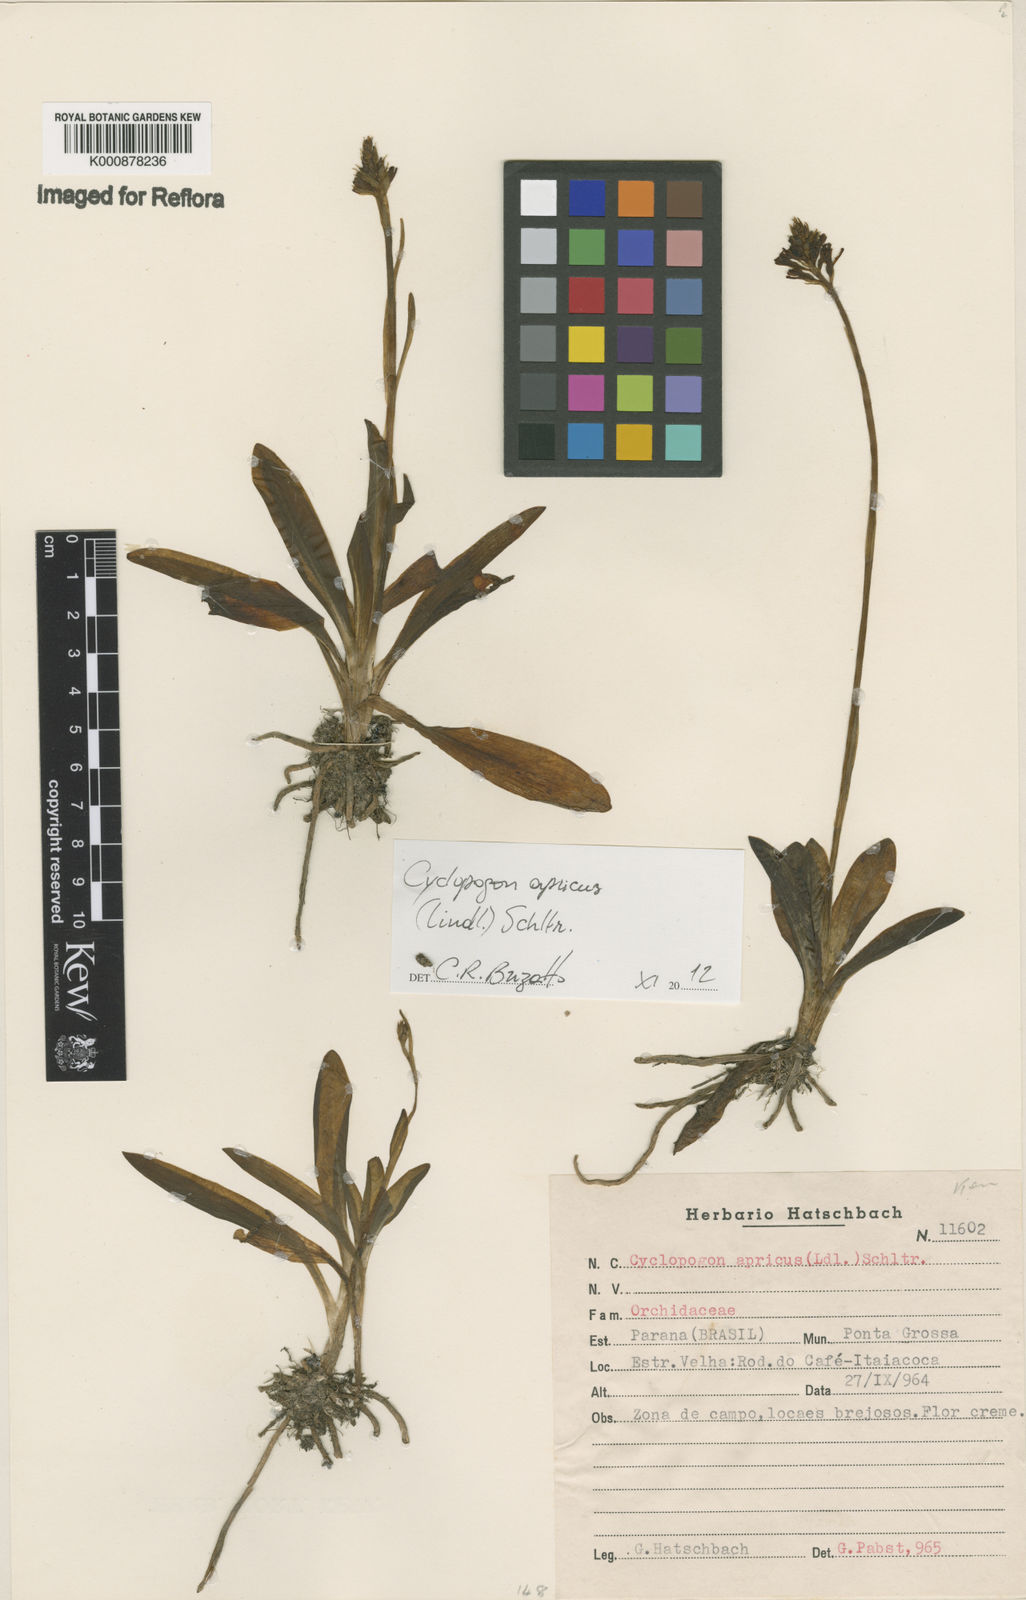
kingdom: Plantae
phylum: Tracheophyta
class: Liliopsida
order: Asparagales
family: Orchidaceae
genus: Cyclopogon
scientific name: Cyclopogon apricus
